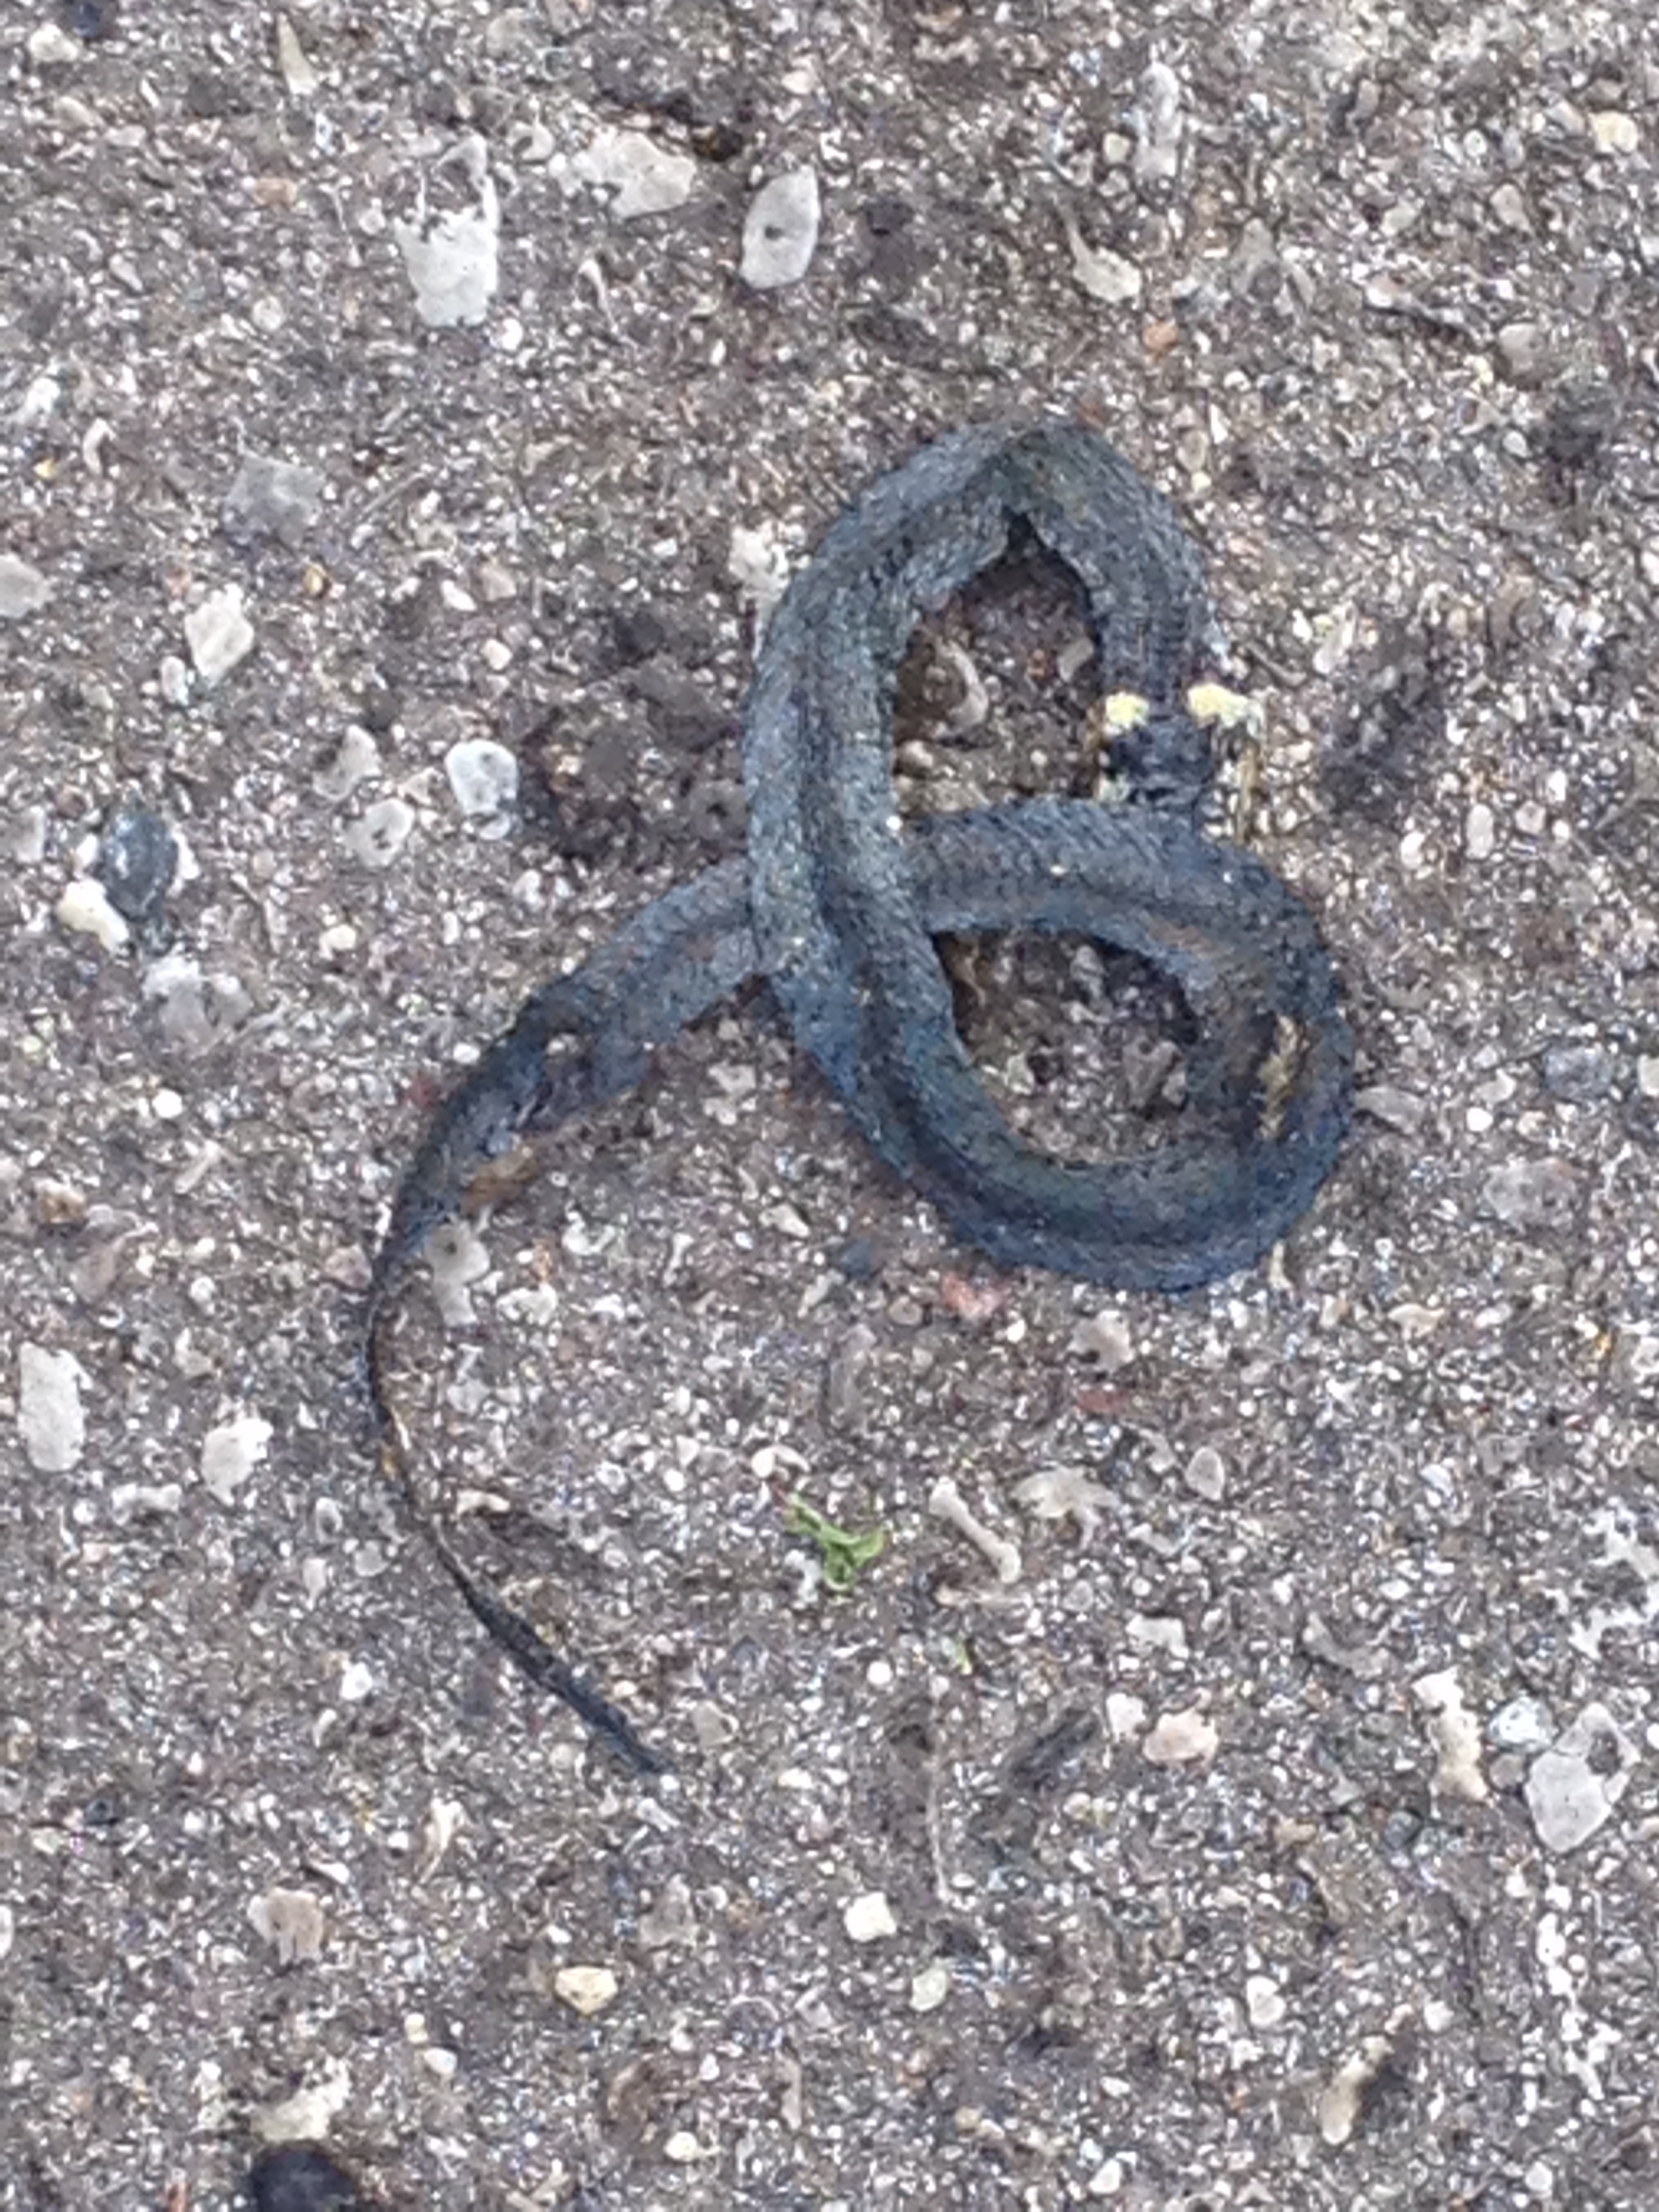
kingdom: Animalia
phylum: Chordata
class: Squamata
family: Colubridae
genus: Natrix
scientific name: Natrix natrix
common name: Grass snake
